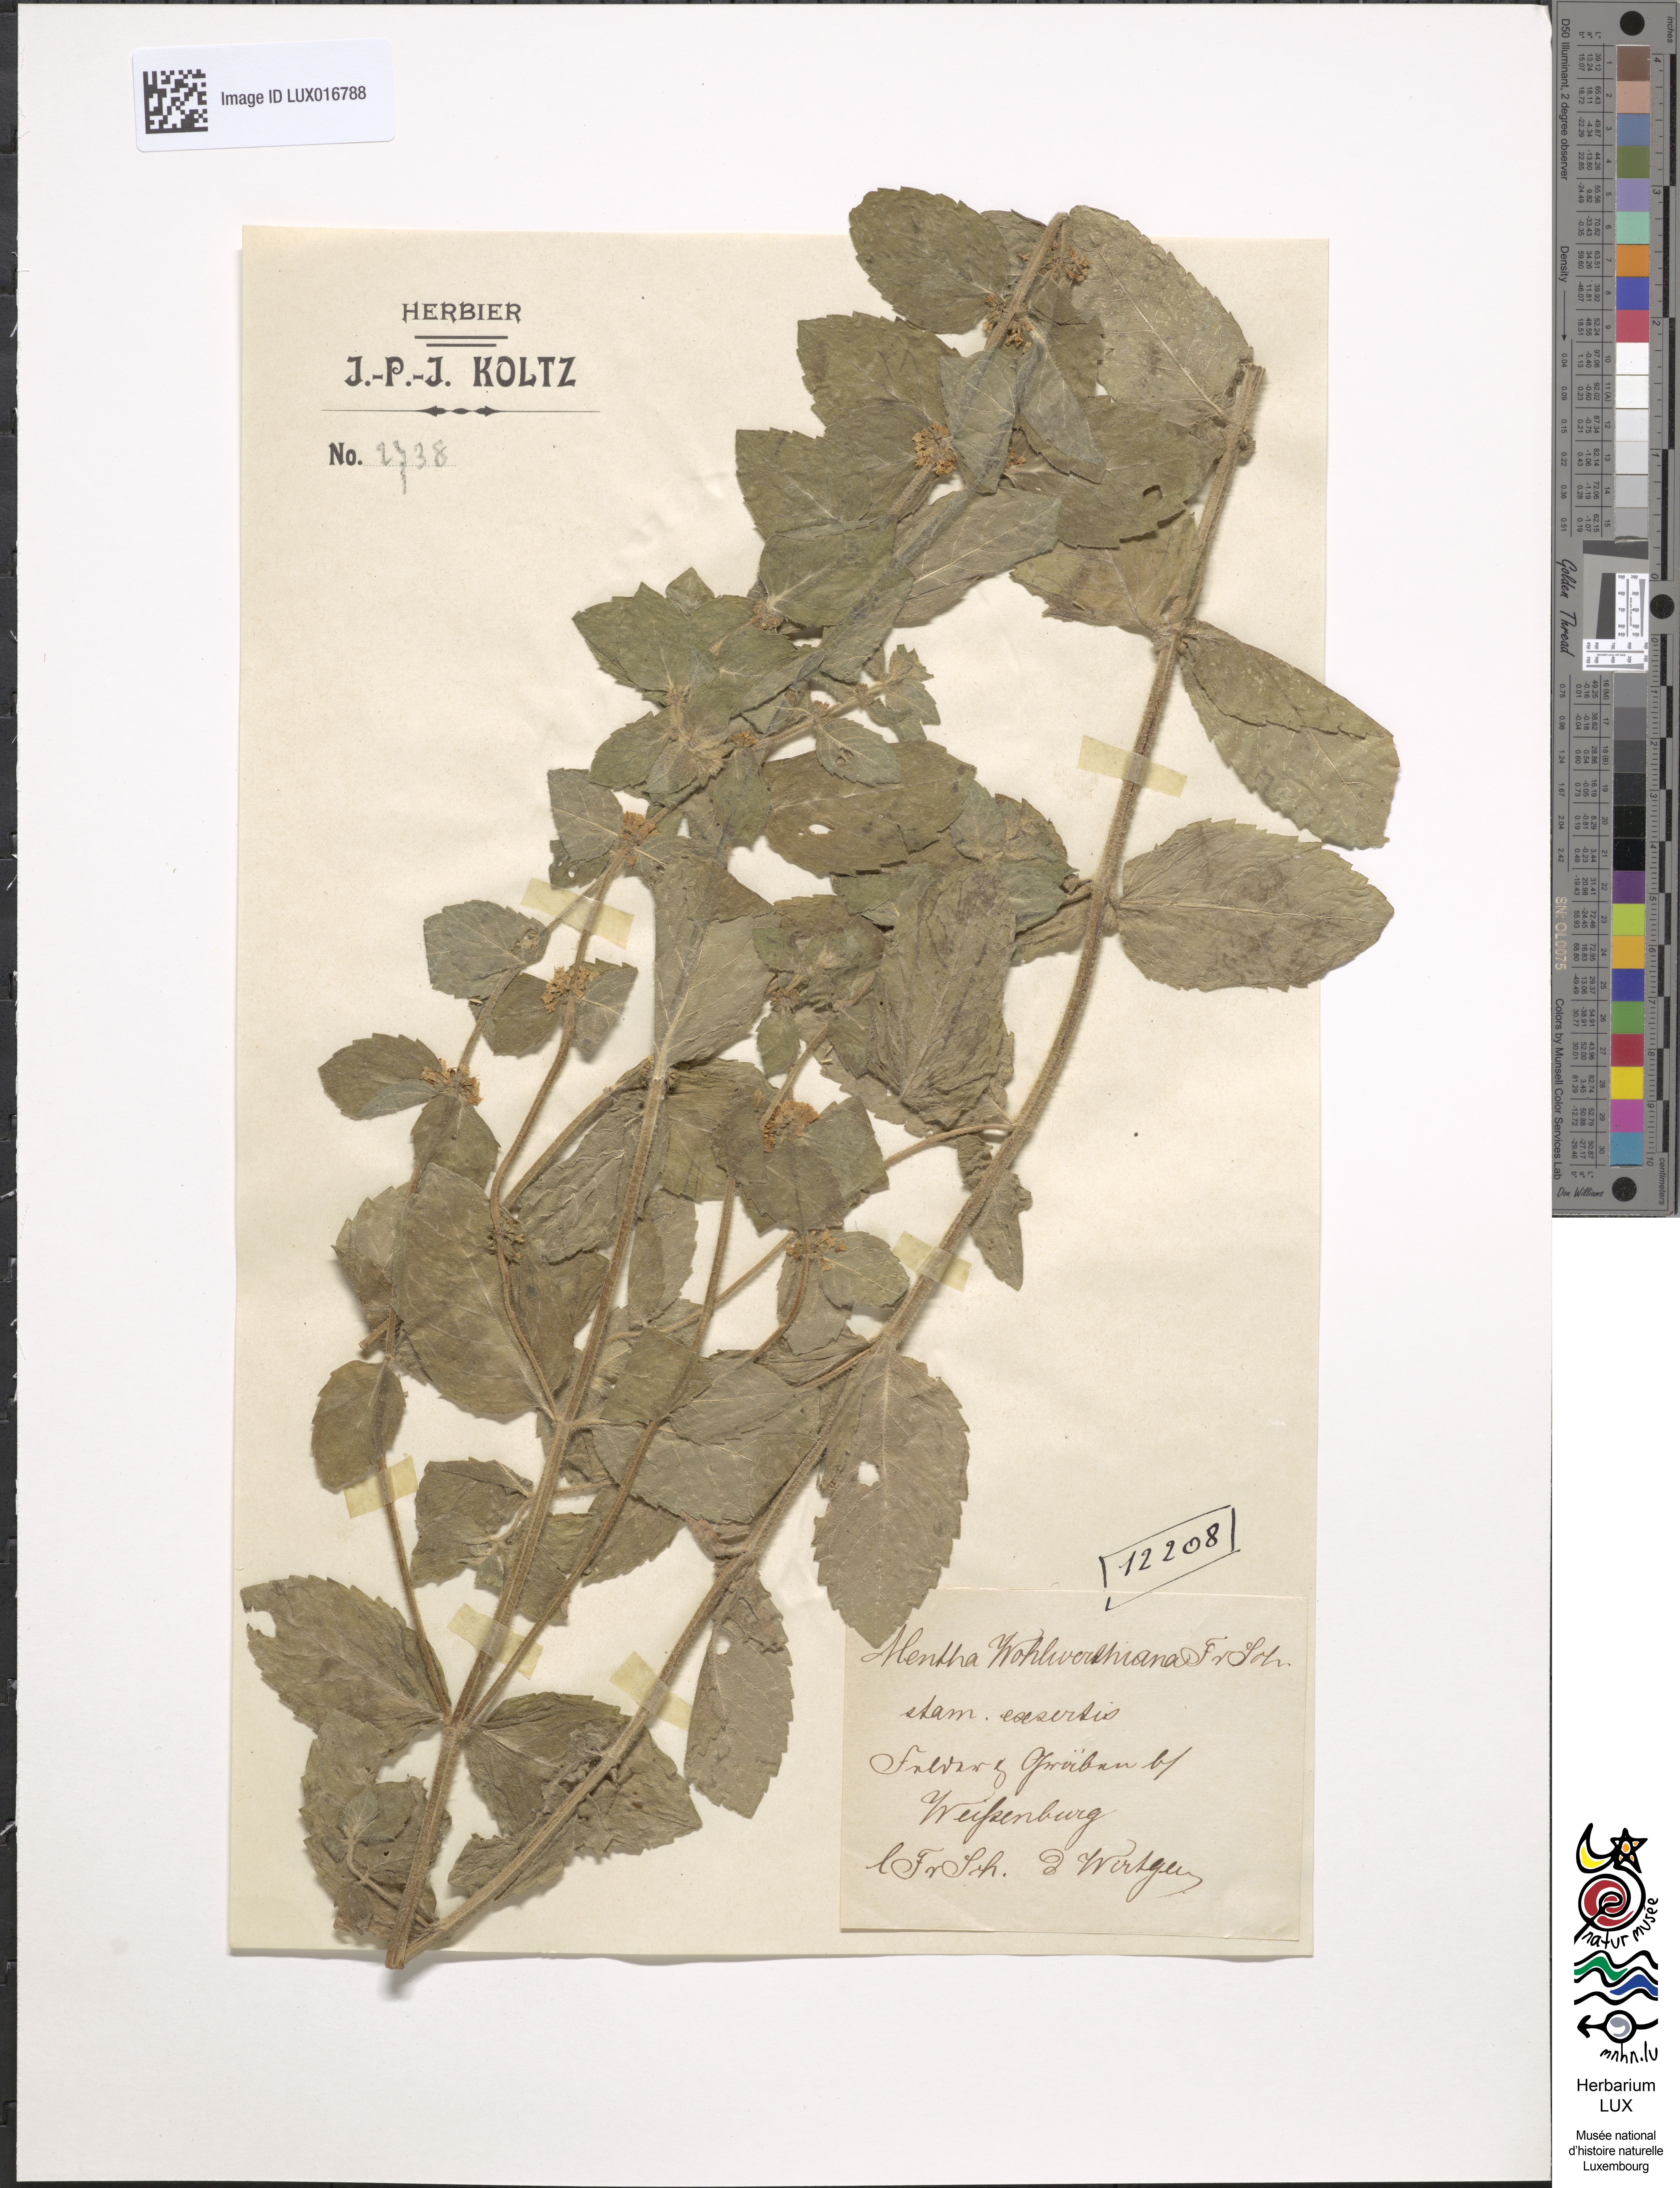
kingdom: Plantae
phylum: Tracheophyta
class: Magnoliopsida
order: Lamiales
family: Lamiaceae
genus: Mentha
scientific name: Mentha carinthiaca
